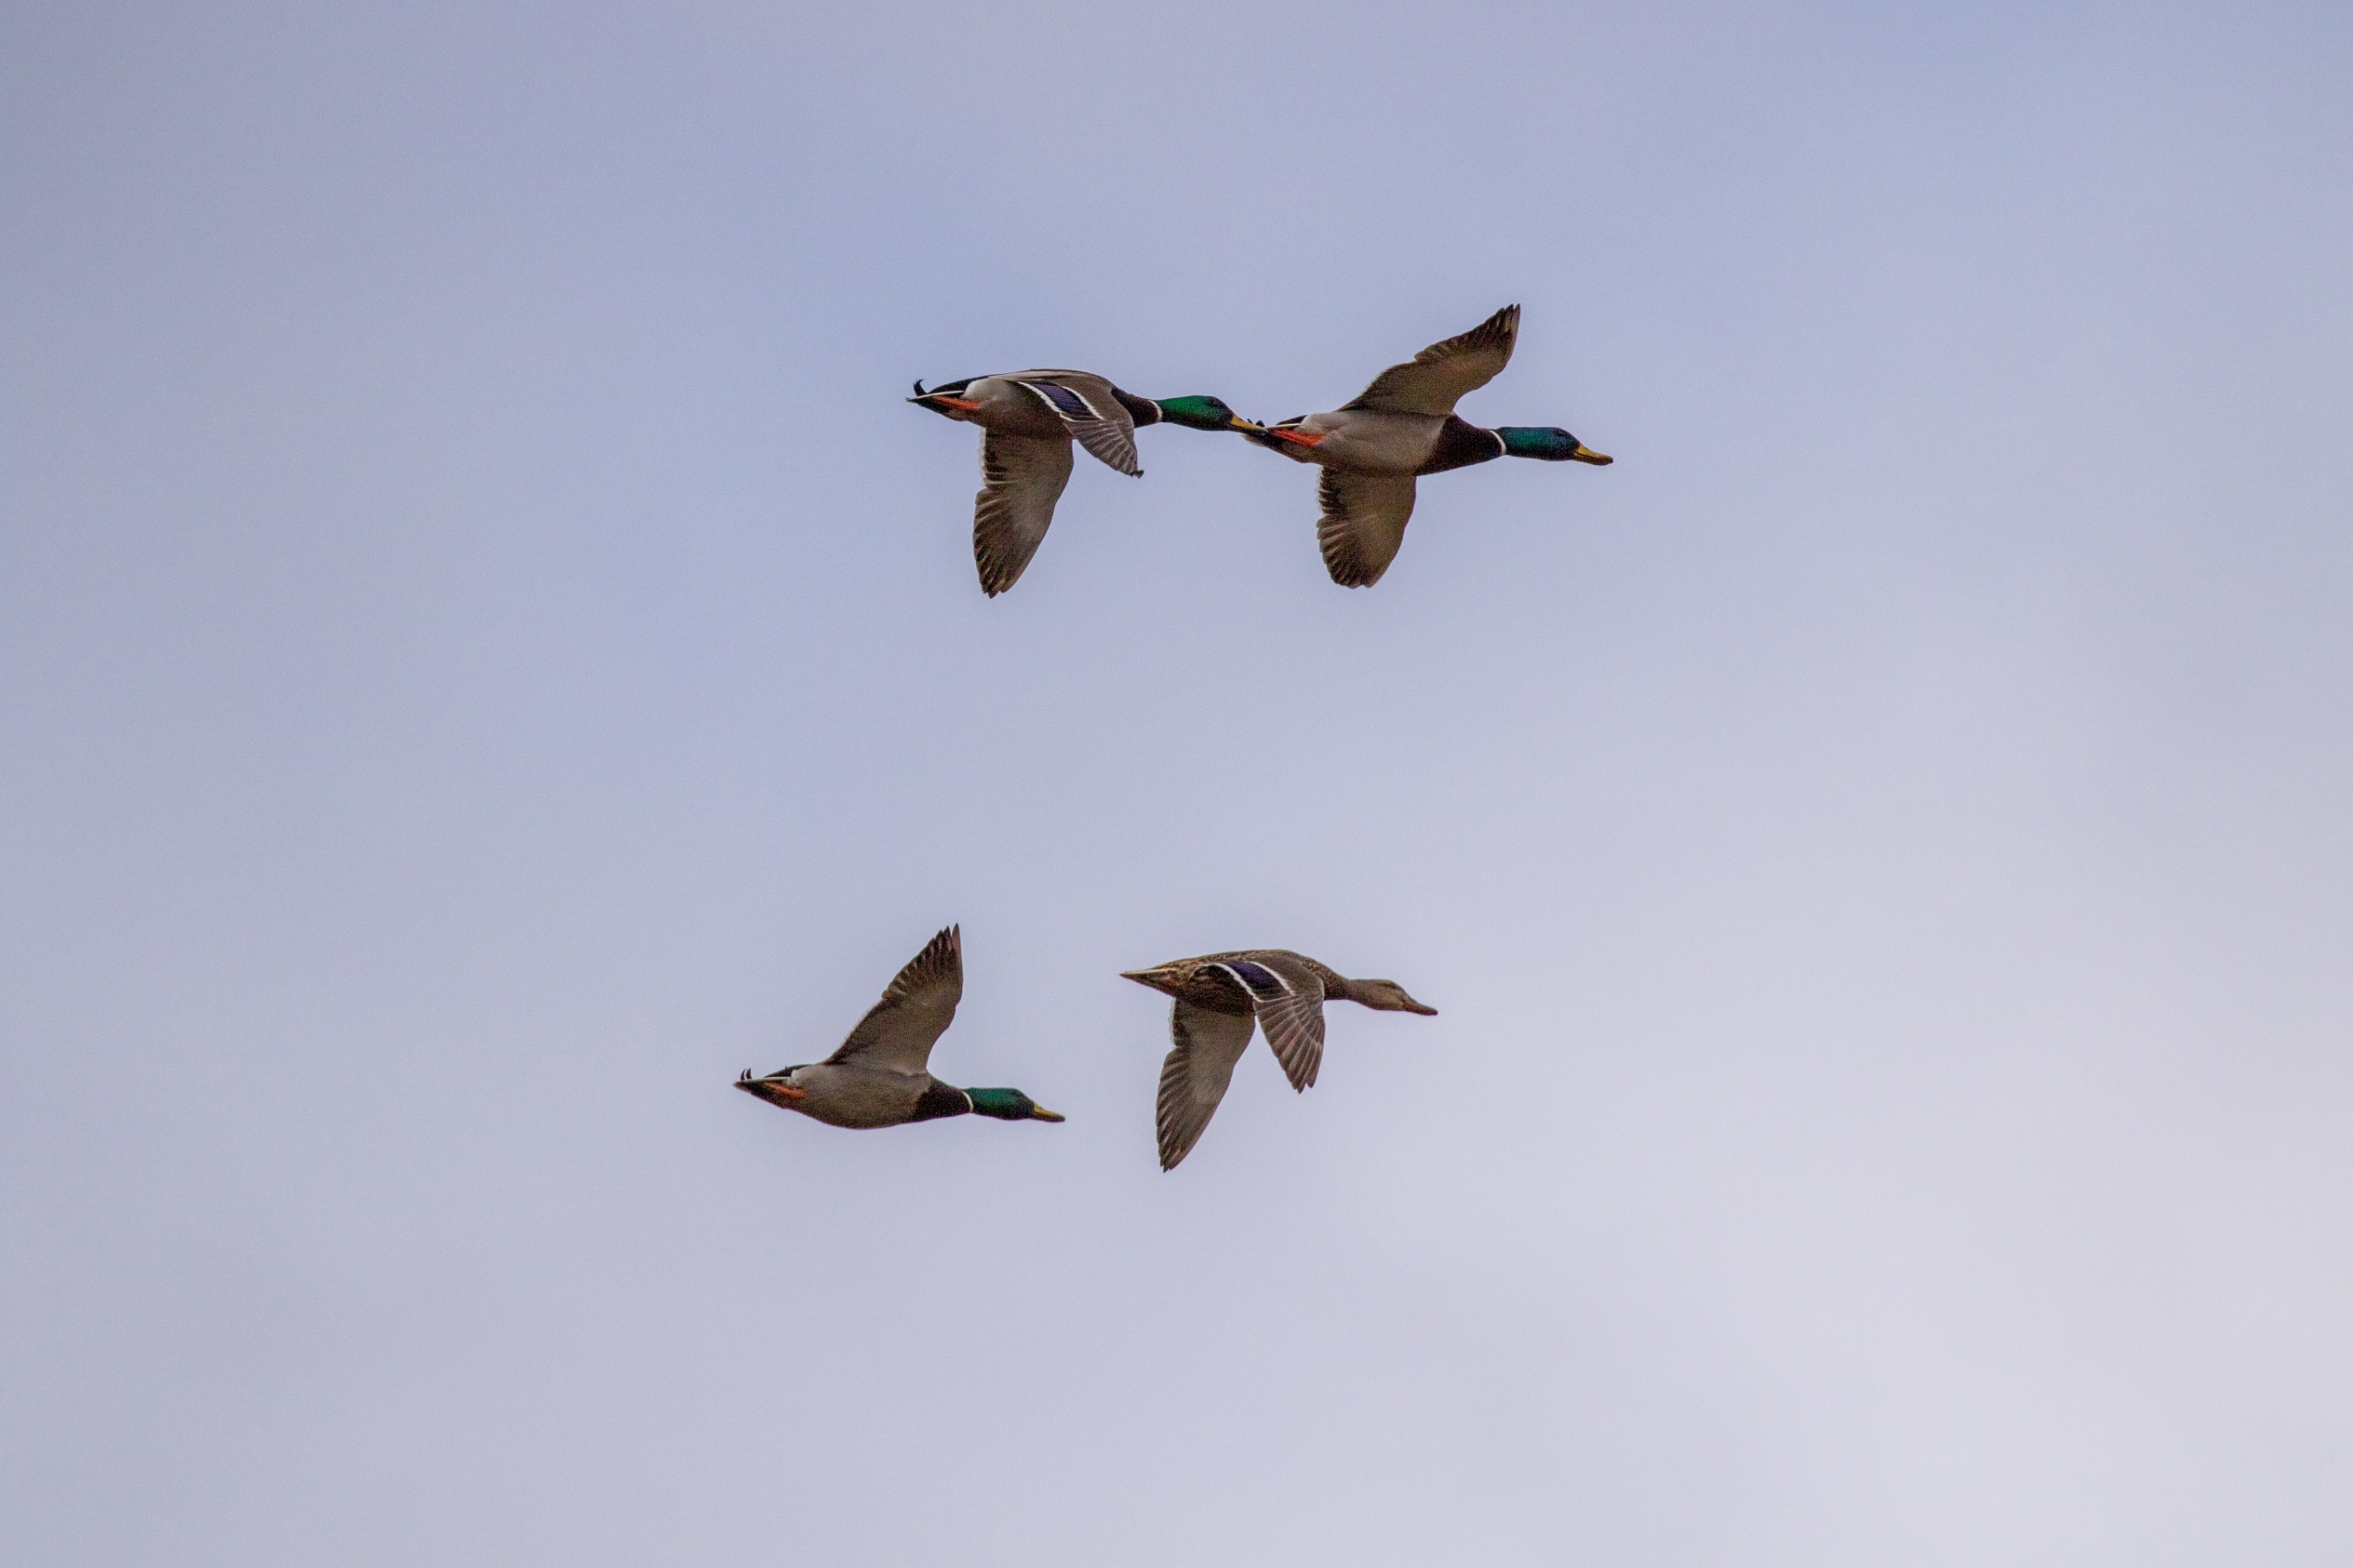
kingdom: Animalia
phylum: Chordata
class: Aves
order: Anseriformes
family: Anatidae
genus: Anas
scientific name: Anas platyrhynchos
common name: Gråand
